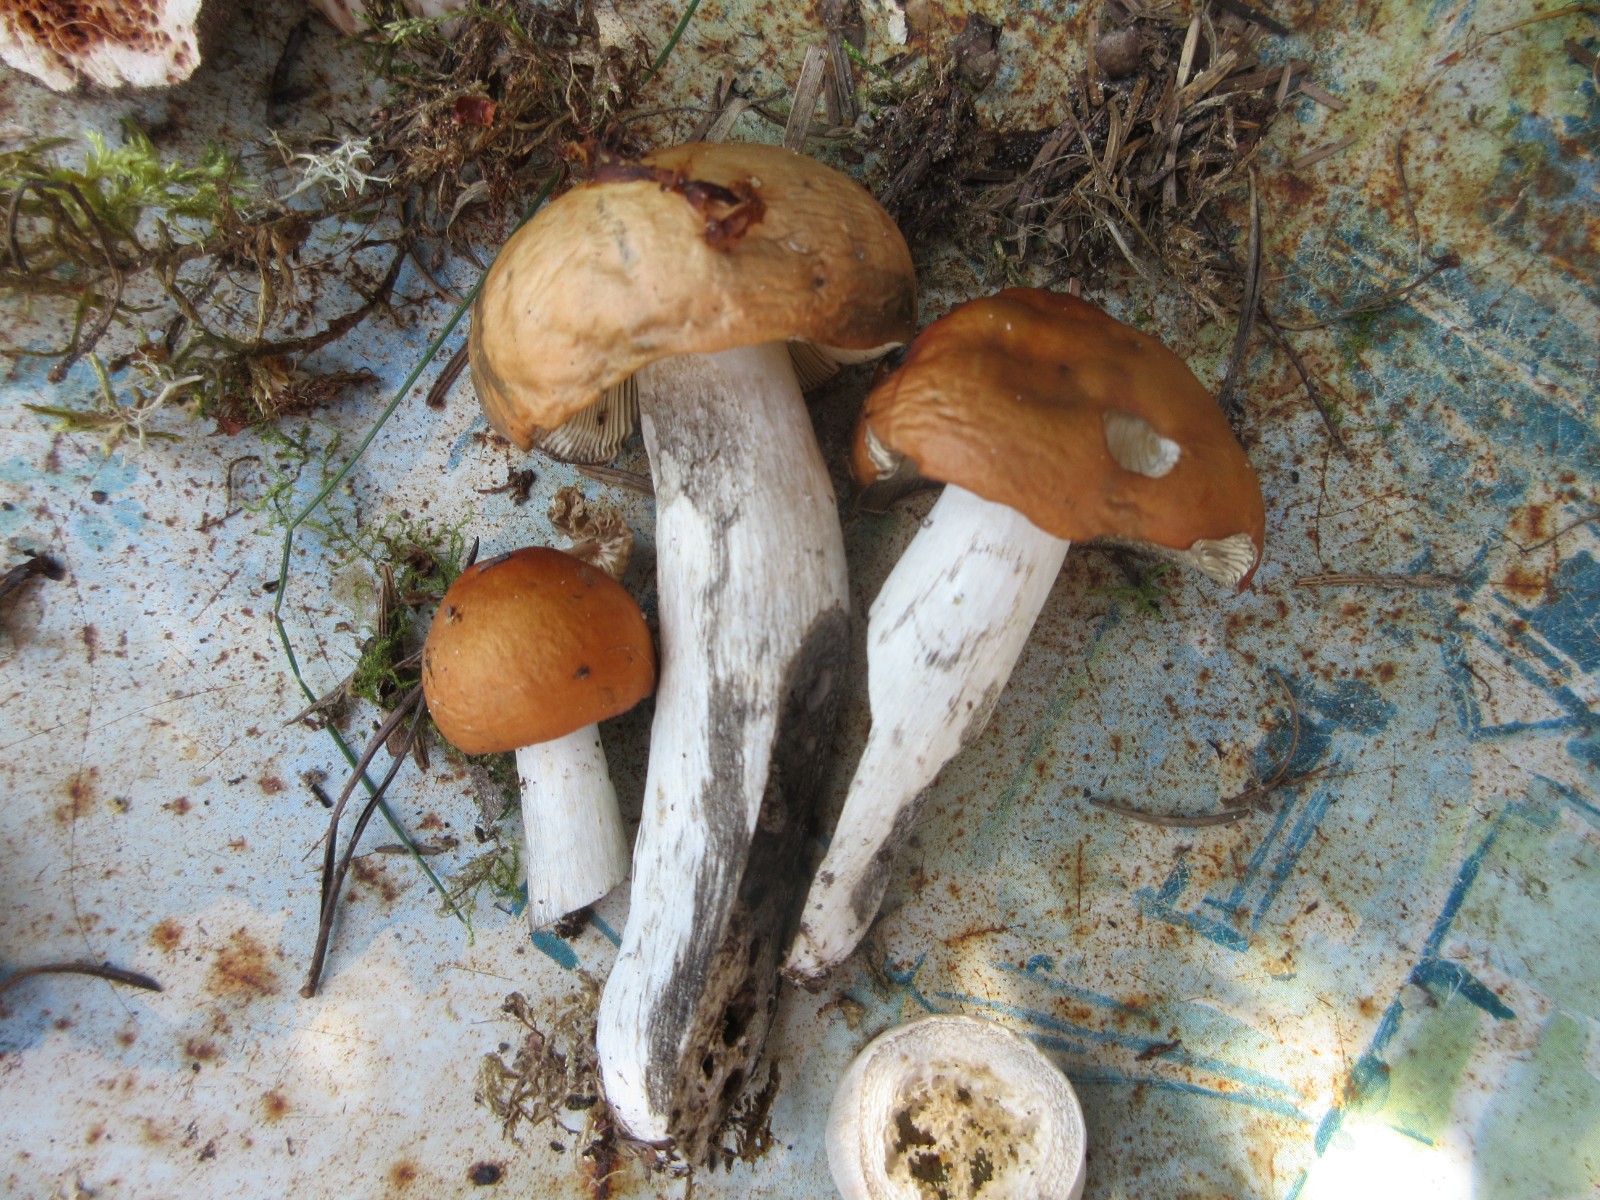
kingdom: Fungi
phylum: Basidiomycota
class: Agaricomycetes
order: Russulales
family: Russulaceae
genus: Russula
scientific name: Russula
